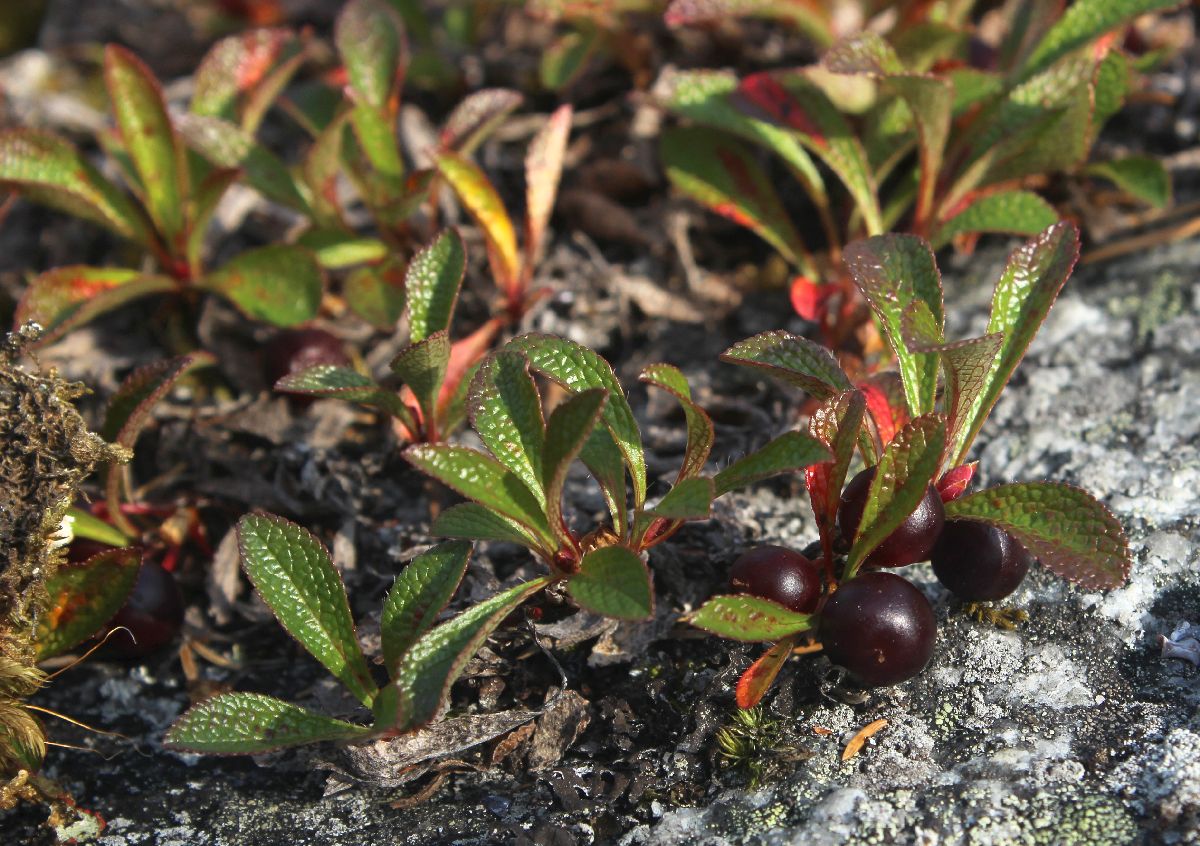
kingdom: Plantae
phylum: Tracheophyta
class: Magnoliopsida
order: Ericales
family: Ericaceae
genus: Arctostaphylos
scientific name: Arctostaphylos alpinus
